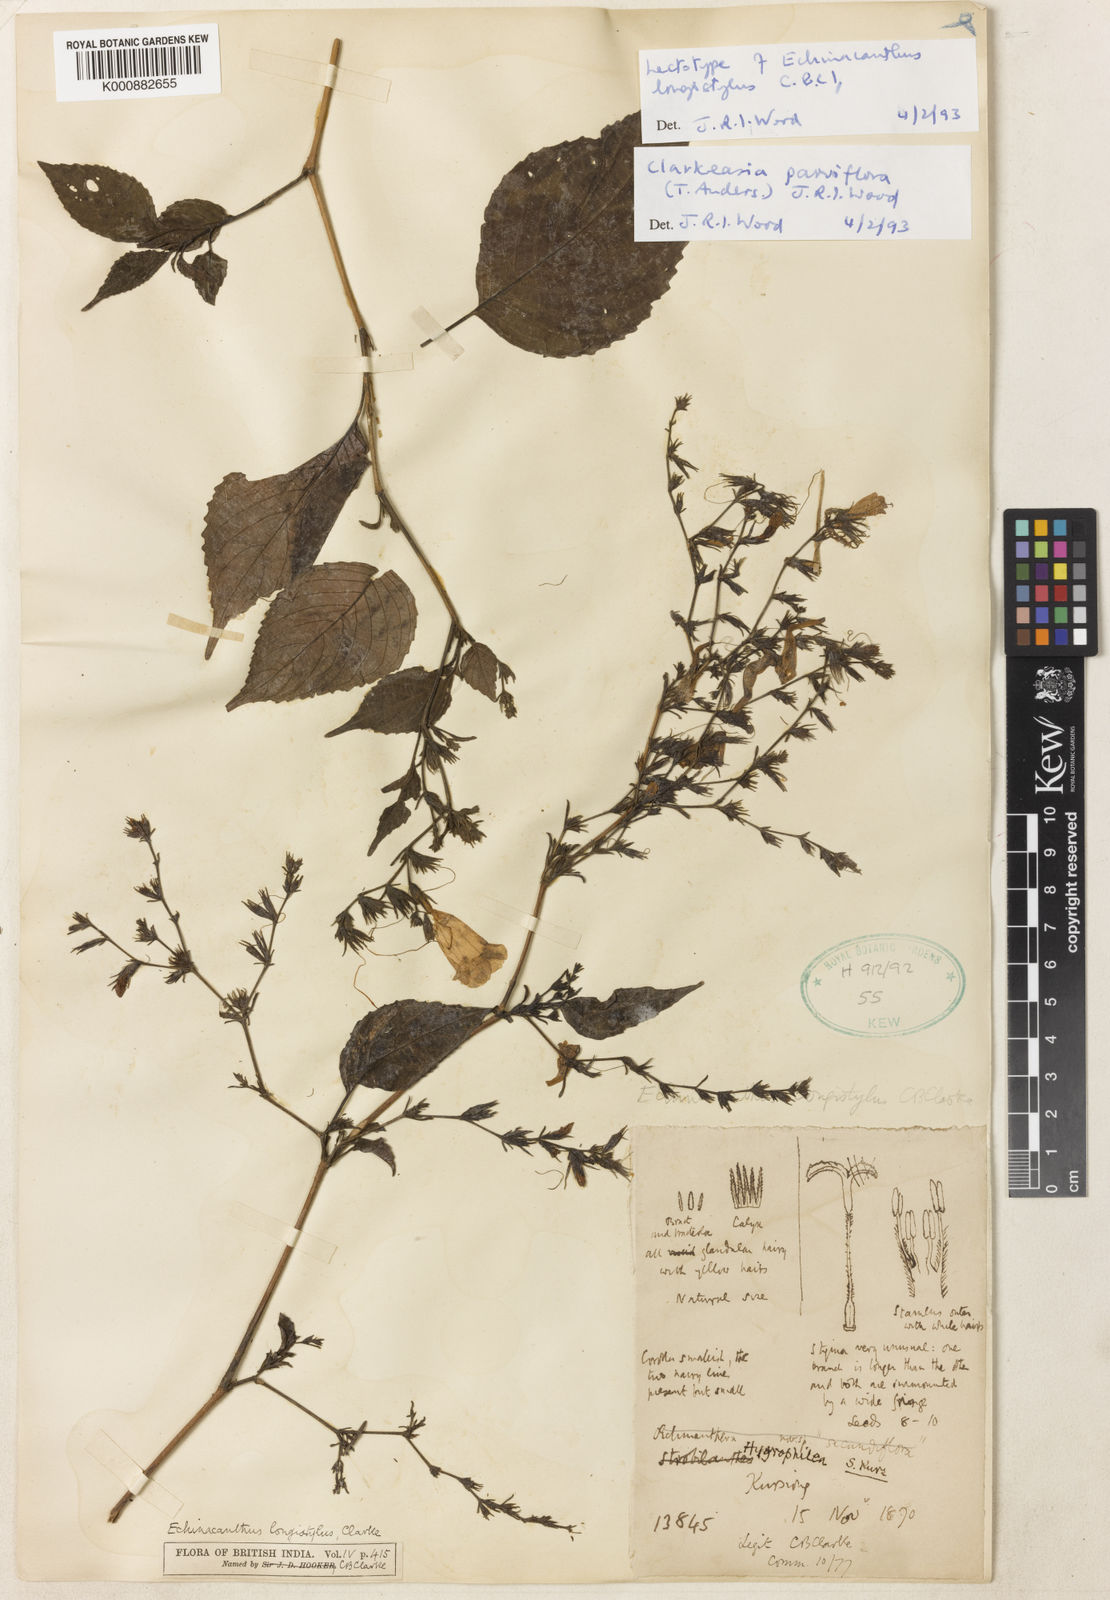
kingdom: Plantae
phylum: Tracheophyta
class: Magnoliopsida
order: Lamiales
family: Acanthaceae
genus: Strobilanthes
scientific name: Strobilanthes violifolia
